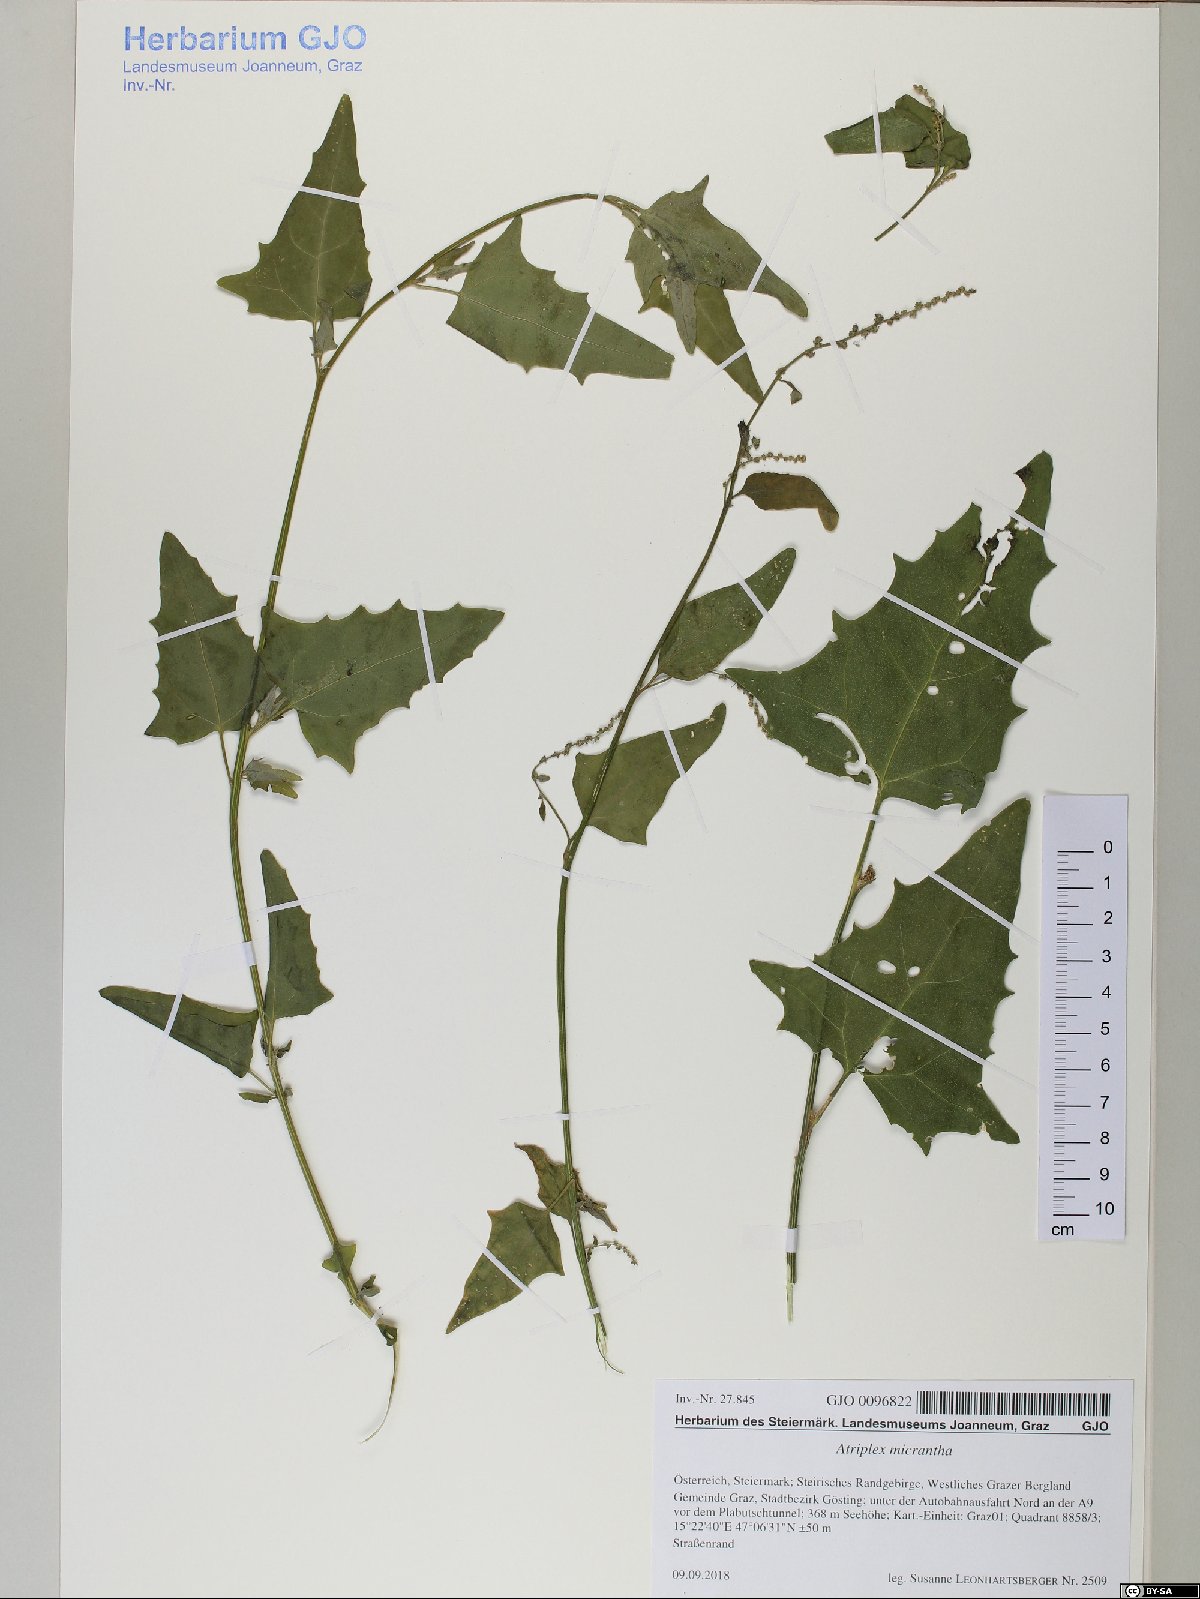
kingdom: Plantae
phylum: Tracheophyta
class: Magnoliopsida
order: Caryophyllales
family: Amaranthaceae
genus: Atriplex
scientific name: Atriplex micrantha
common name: Twoscale saltbush
